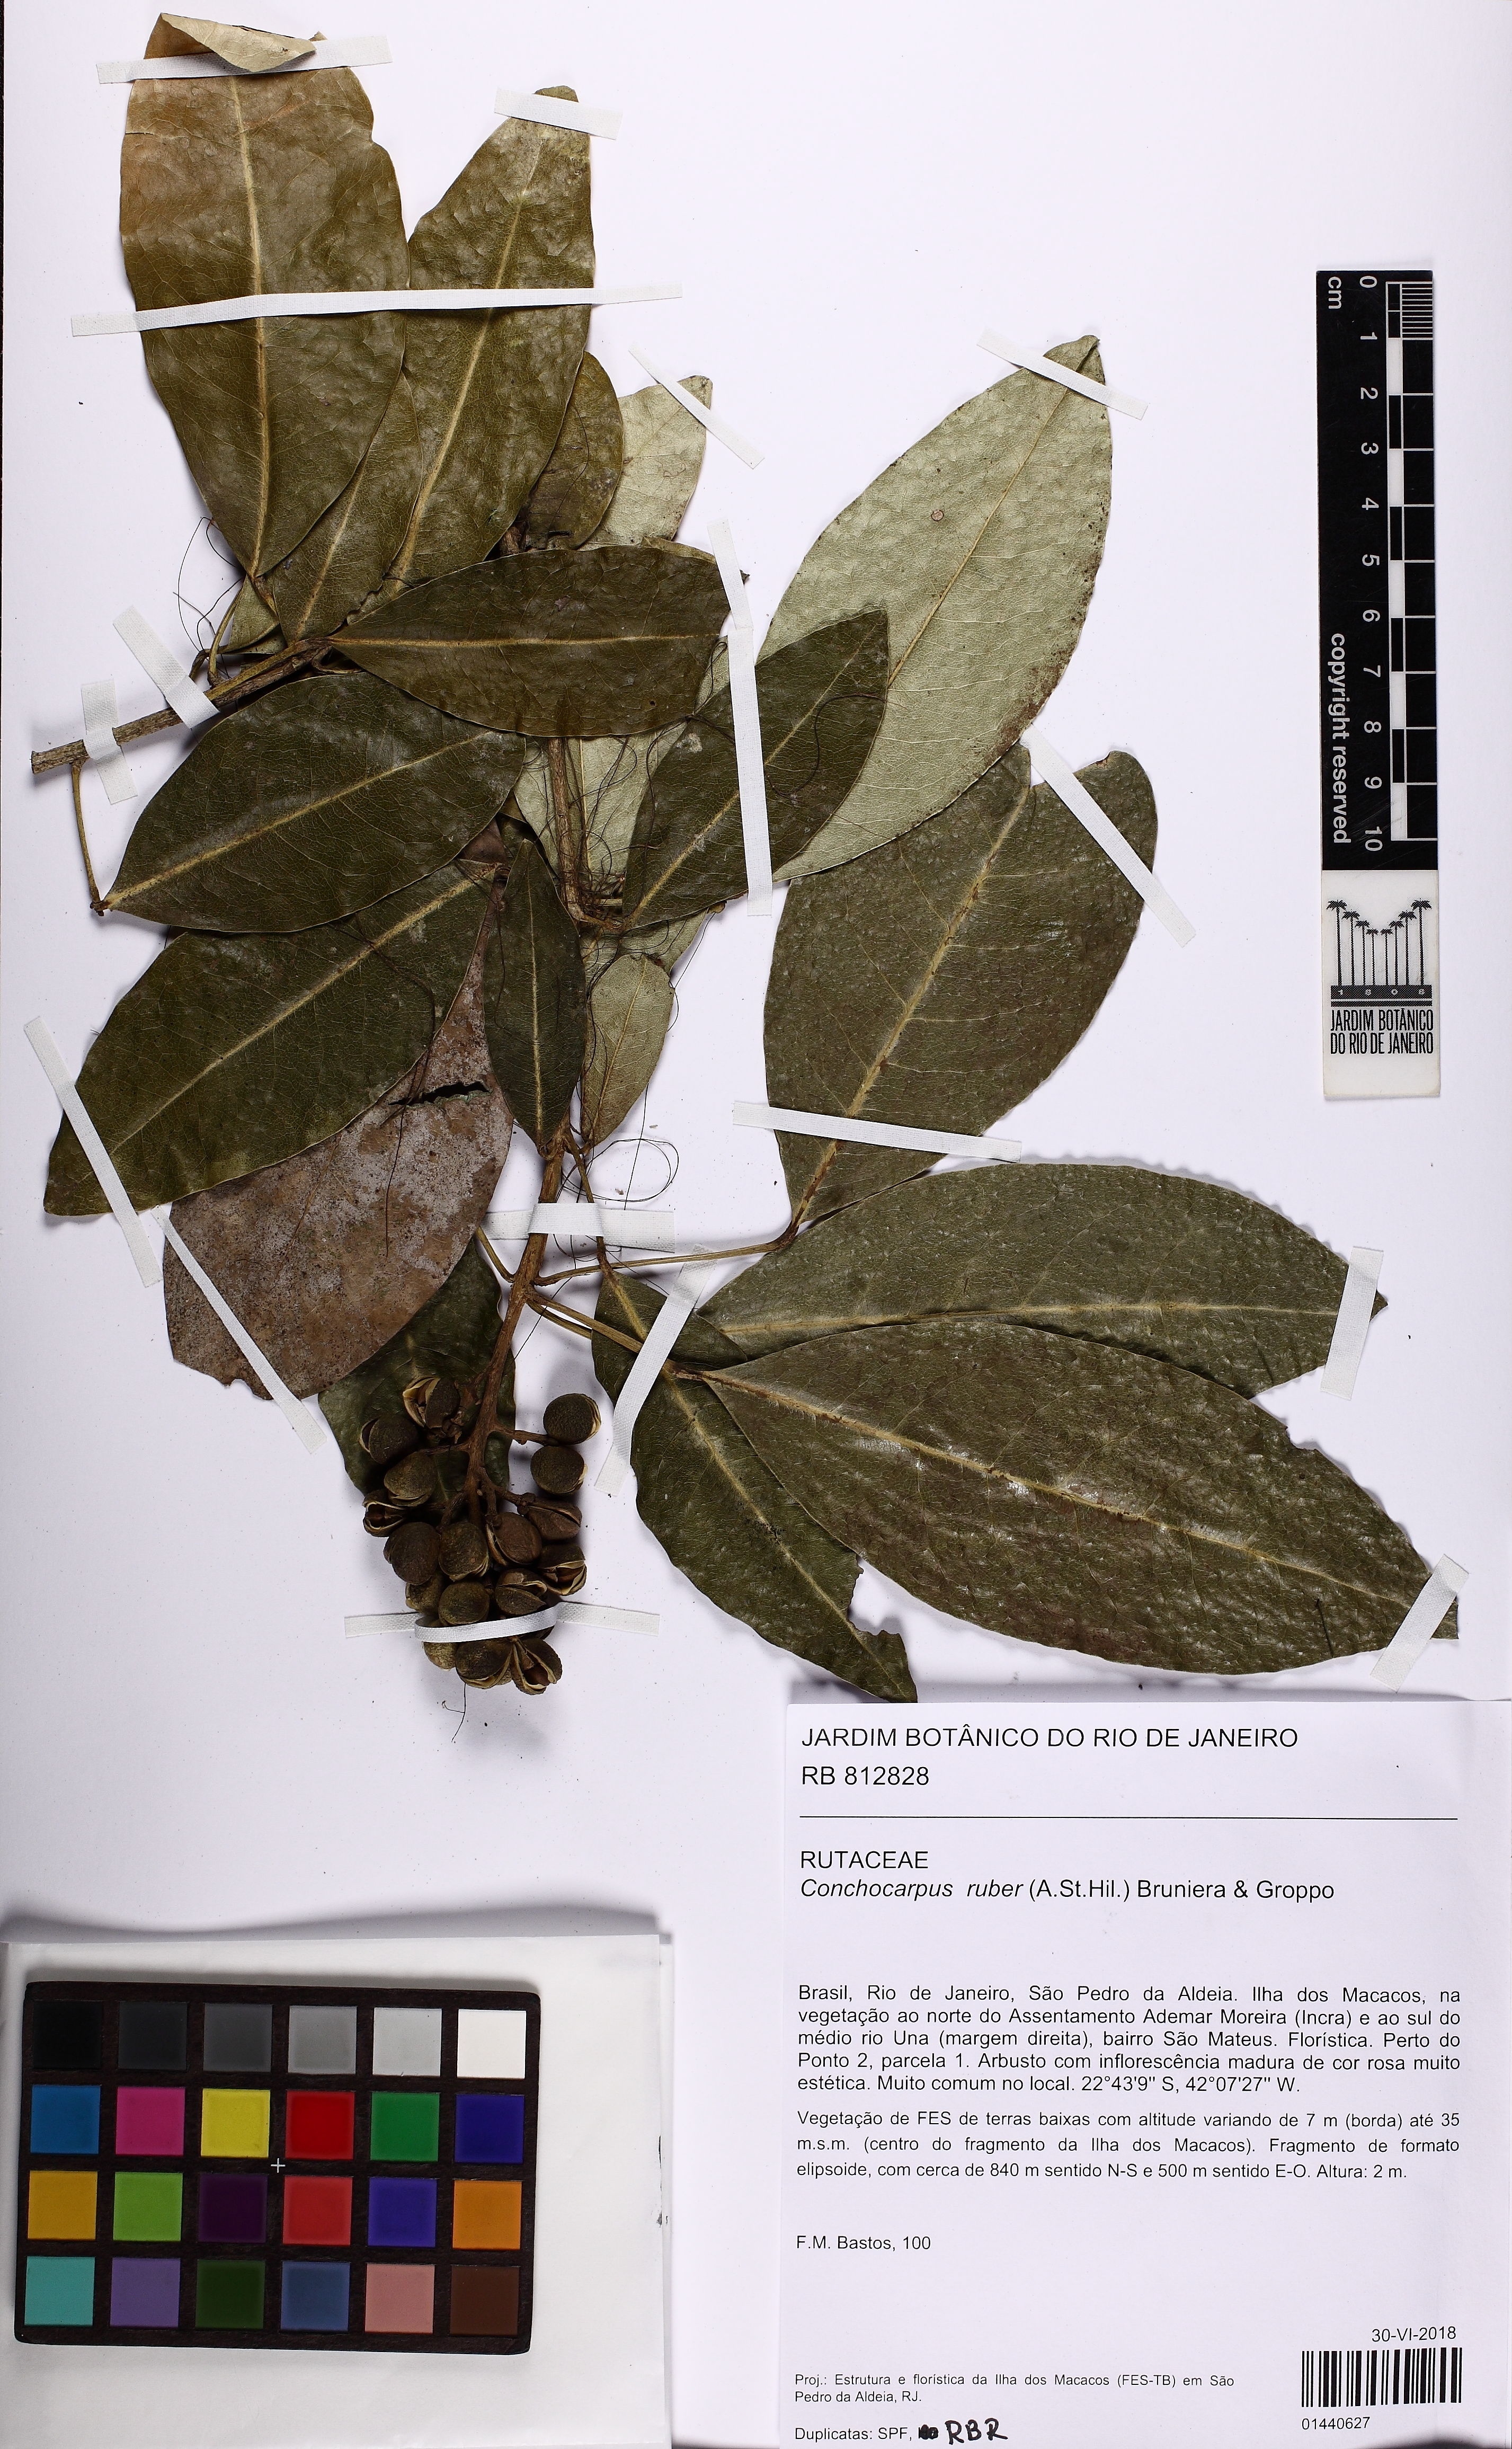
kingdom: Plantae
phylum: Tracheophyta
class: Magnoliopsida
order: Sapindales
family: Rutaceae
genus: Conchocarpus
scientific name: Conchocarpus ruber
